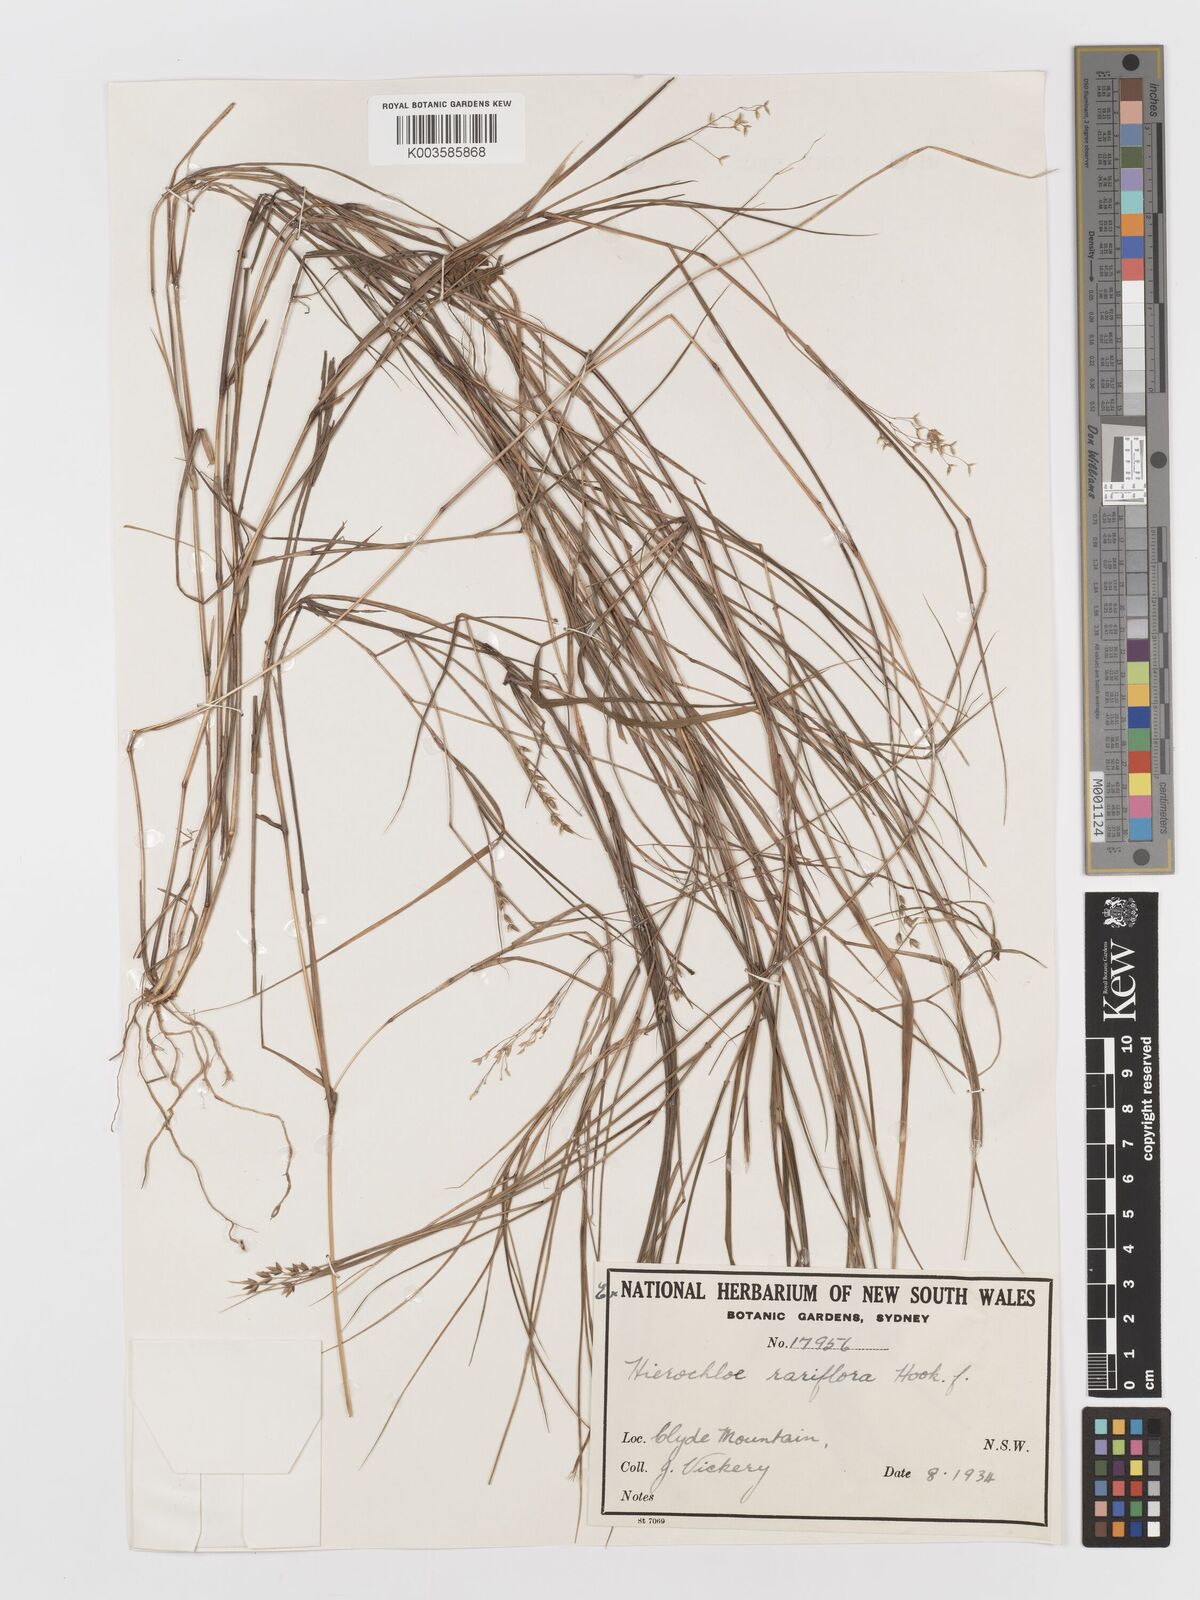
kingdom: Plantae
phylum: Tracheophyta
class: Liliopsida
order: Poales
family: Poaceae
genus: Anthoxanthum
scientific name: Anthoxanthum rariflorum
